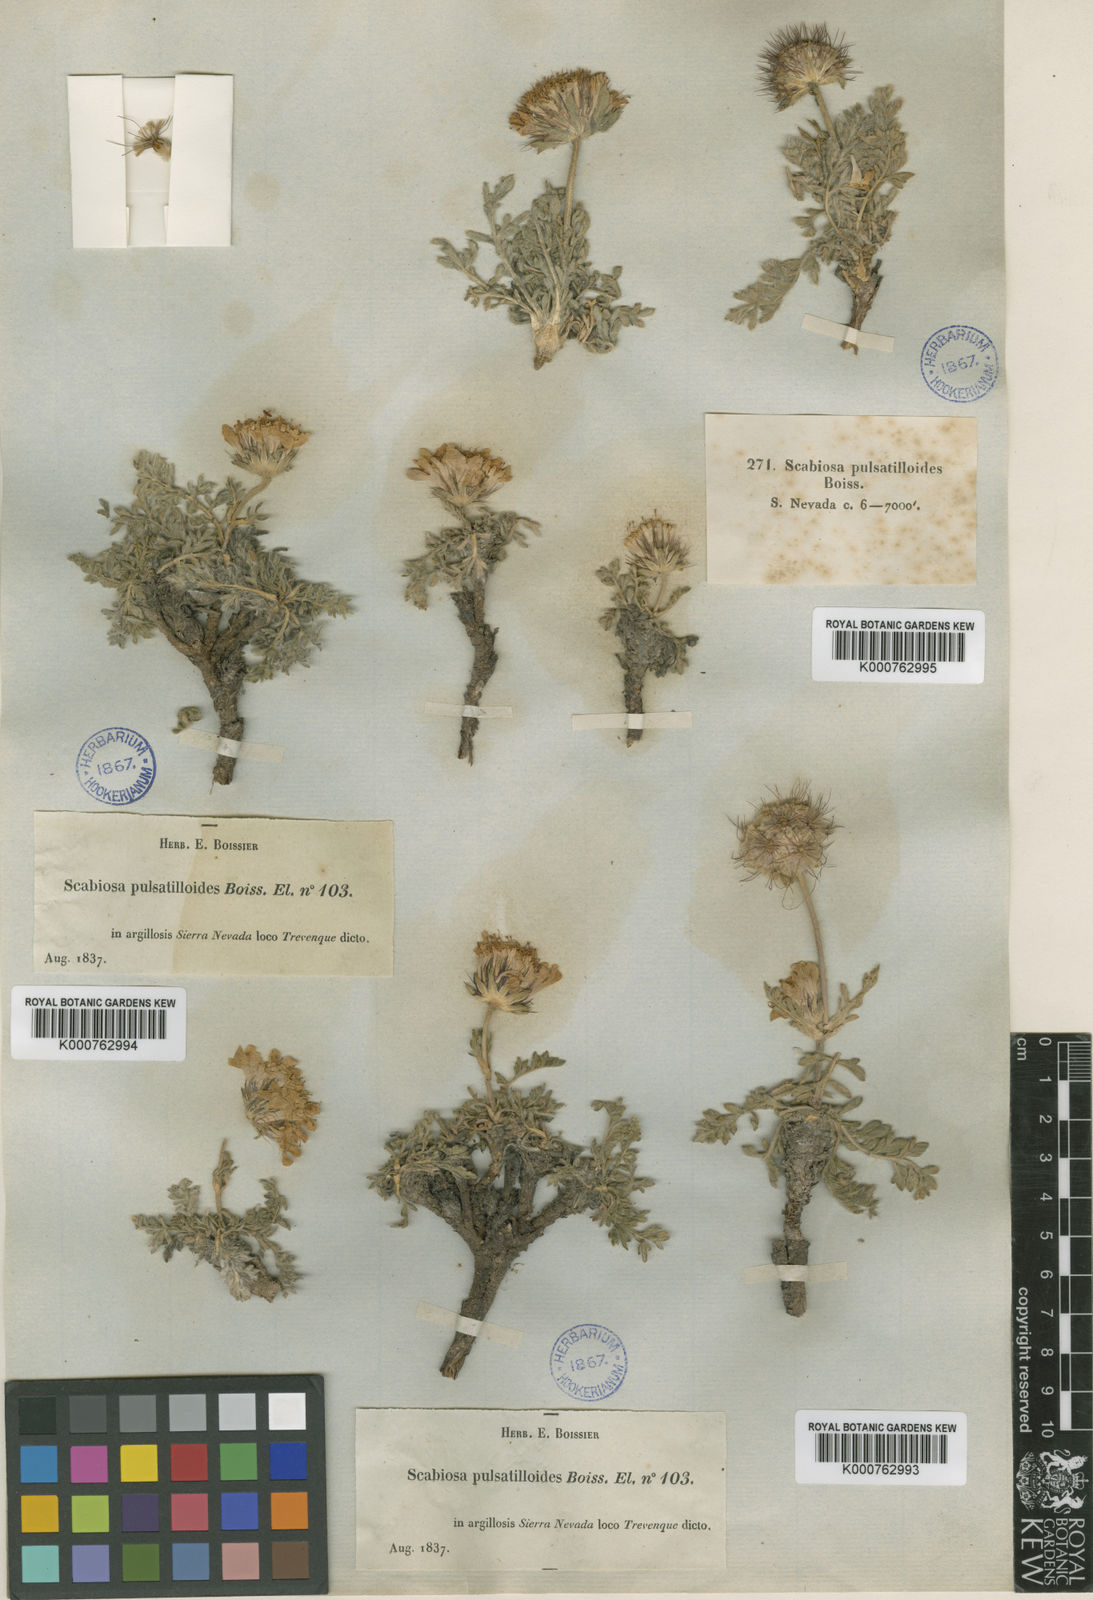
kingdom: Plantae
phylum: Tracheophyta
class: Magnoliopsida
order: Dipsacales
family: Caprifoliaceae
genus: Lomelosia
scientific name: Lomelosia pulsatilloides
